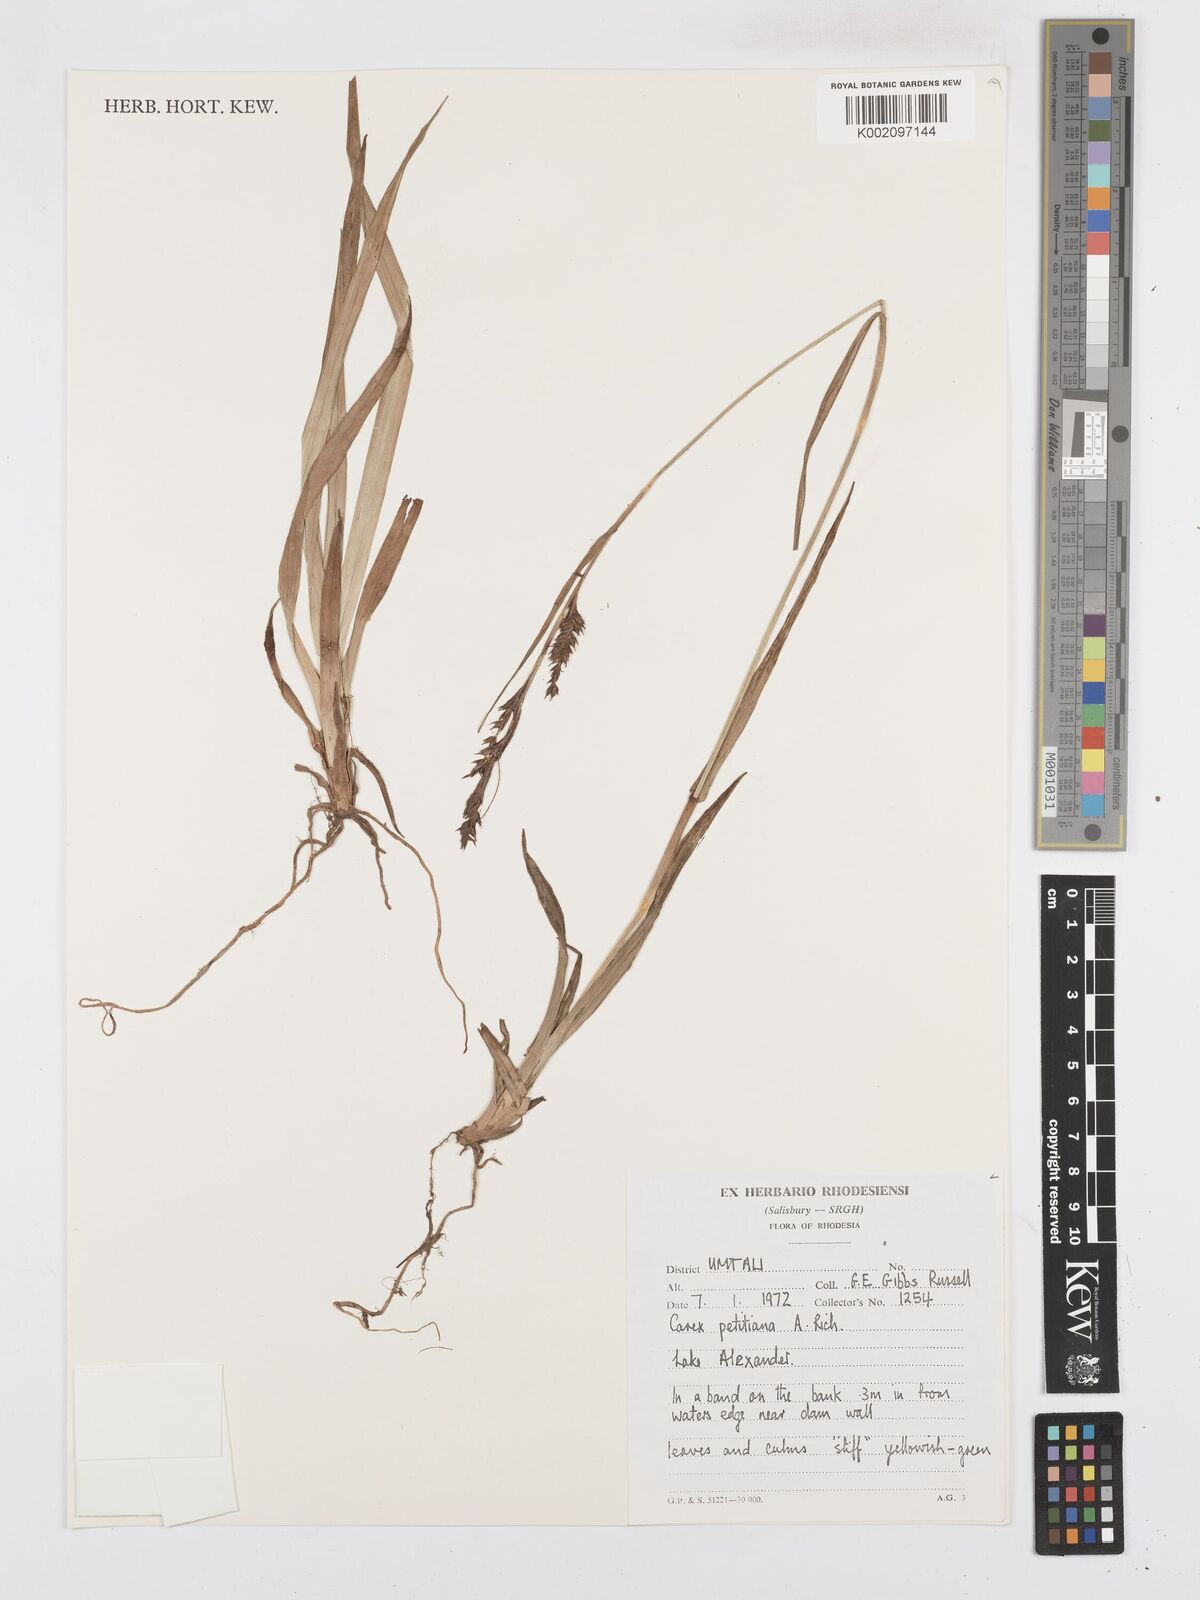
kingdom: Plantae
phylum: Tracheophyta
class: Liliopsida
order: Poales
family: Cyperaceae
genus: Carex
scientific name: Carex petitiana
